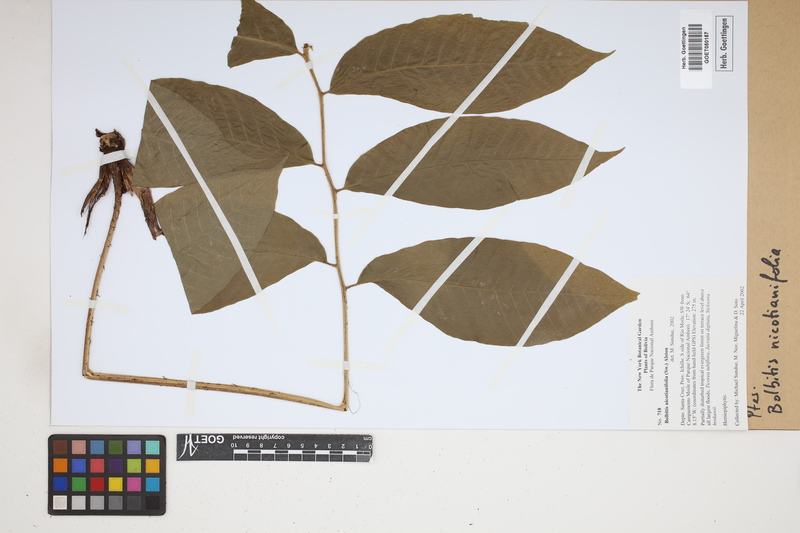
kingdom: Plantae
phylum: Tracheophyta
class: Polypodiopsida
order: Polypodiales
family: Dryopteridaceae
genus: Mickelia
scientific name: Mickelia nicotianifolia
